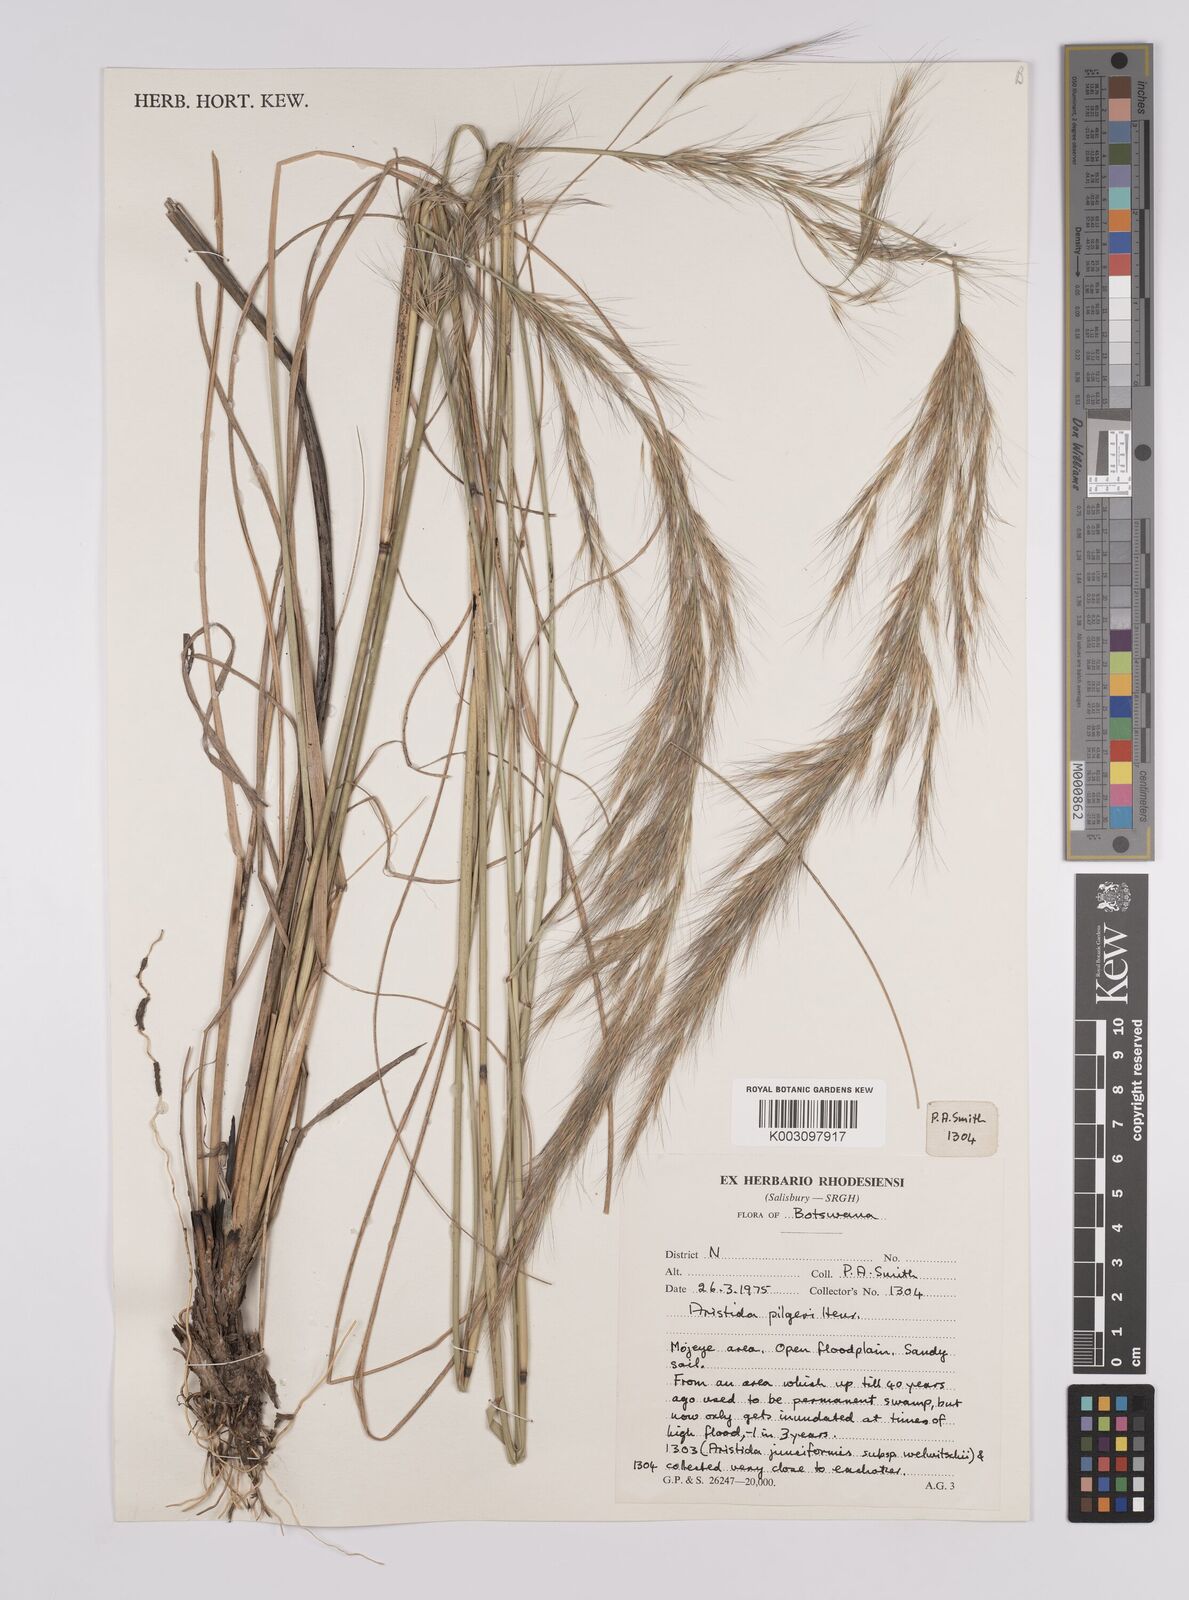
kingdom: Plantae
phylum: Tracheophyta
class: Liliopsida
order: Poales
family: Poaceae
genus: Aristida
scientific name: Aristida pilgeri
